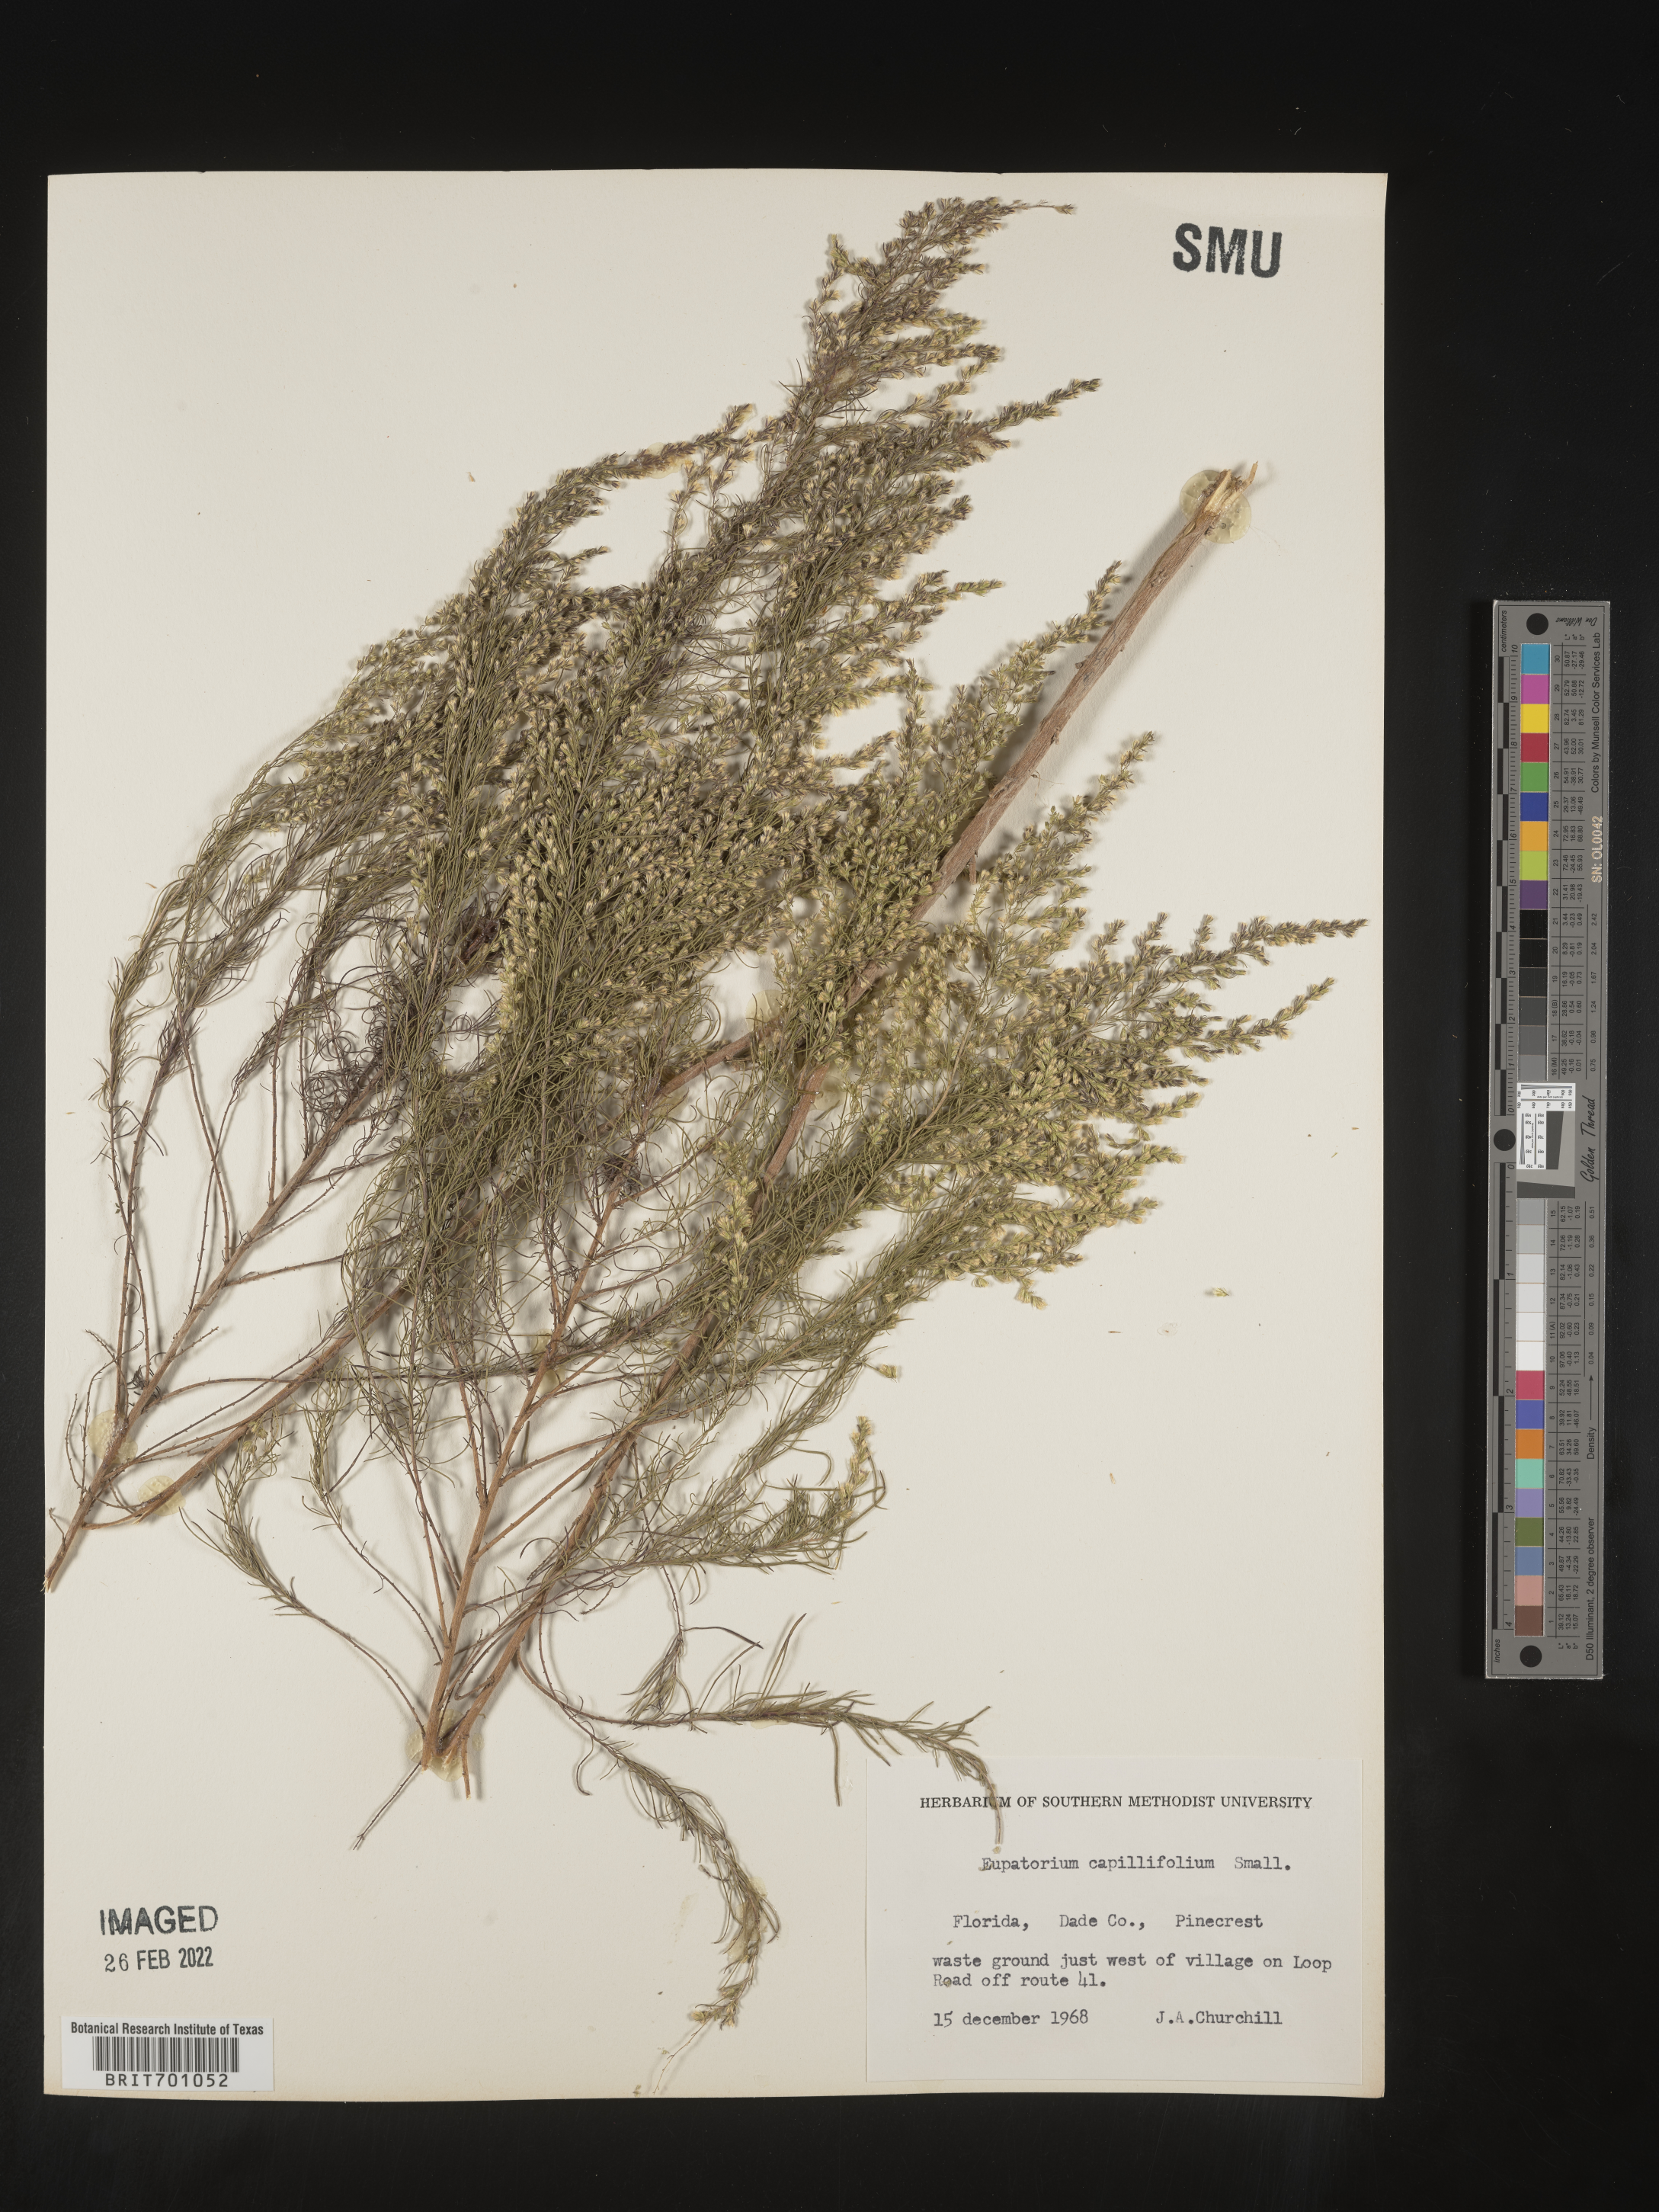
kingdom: Plantae
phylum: Tracheophyta
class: Magnoliopsida
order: Asterales
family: Asteraceae
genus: Eupatorium
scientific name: Eupatorium capillifolium
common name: Dog-fennel
